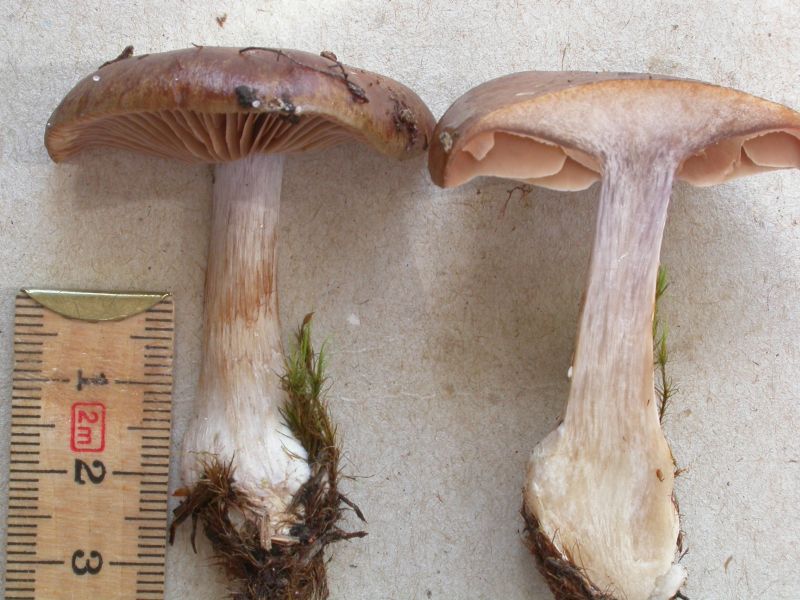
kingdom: Fungi
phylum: Basidiomycota
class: Agaricomycetes
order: Agaricales
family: Cortinariaceae
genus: Thaxterogaster
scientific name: Thaxterogaster sphagnophilus
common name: vandplettet slørhat
